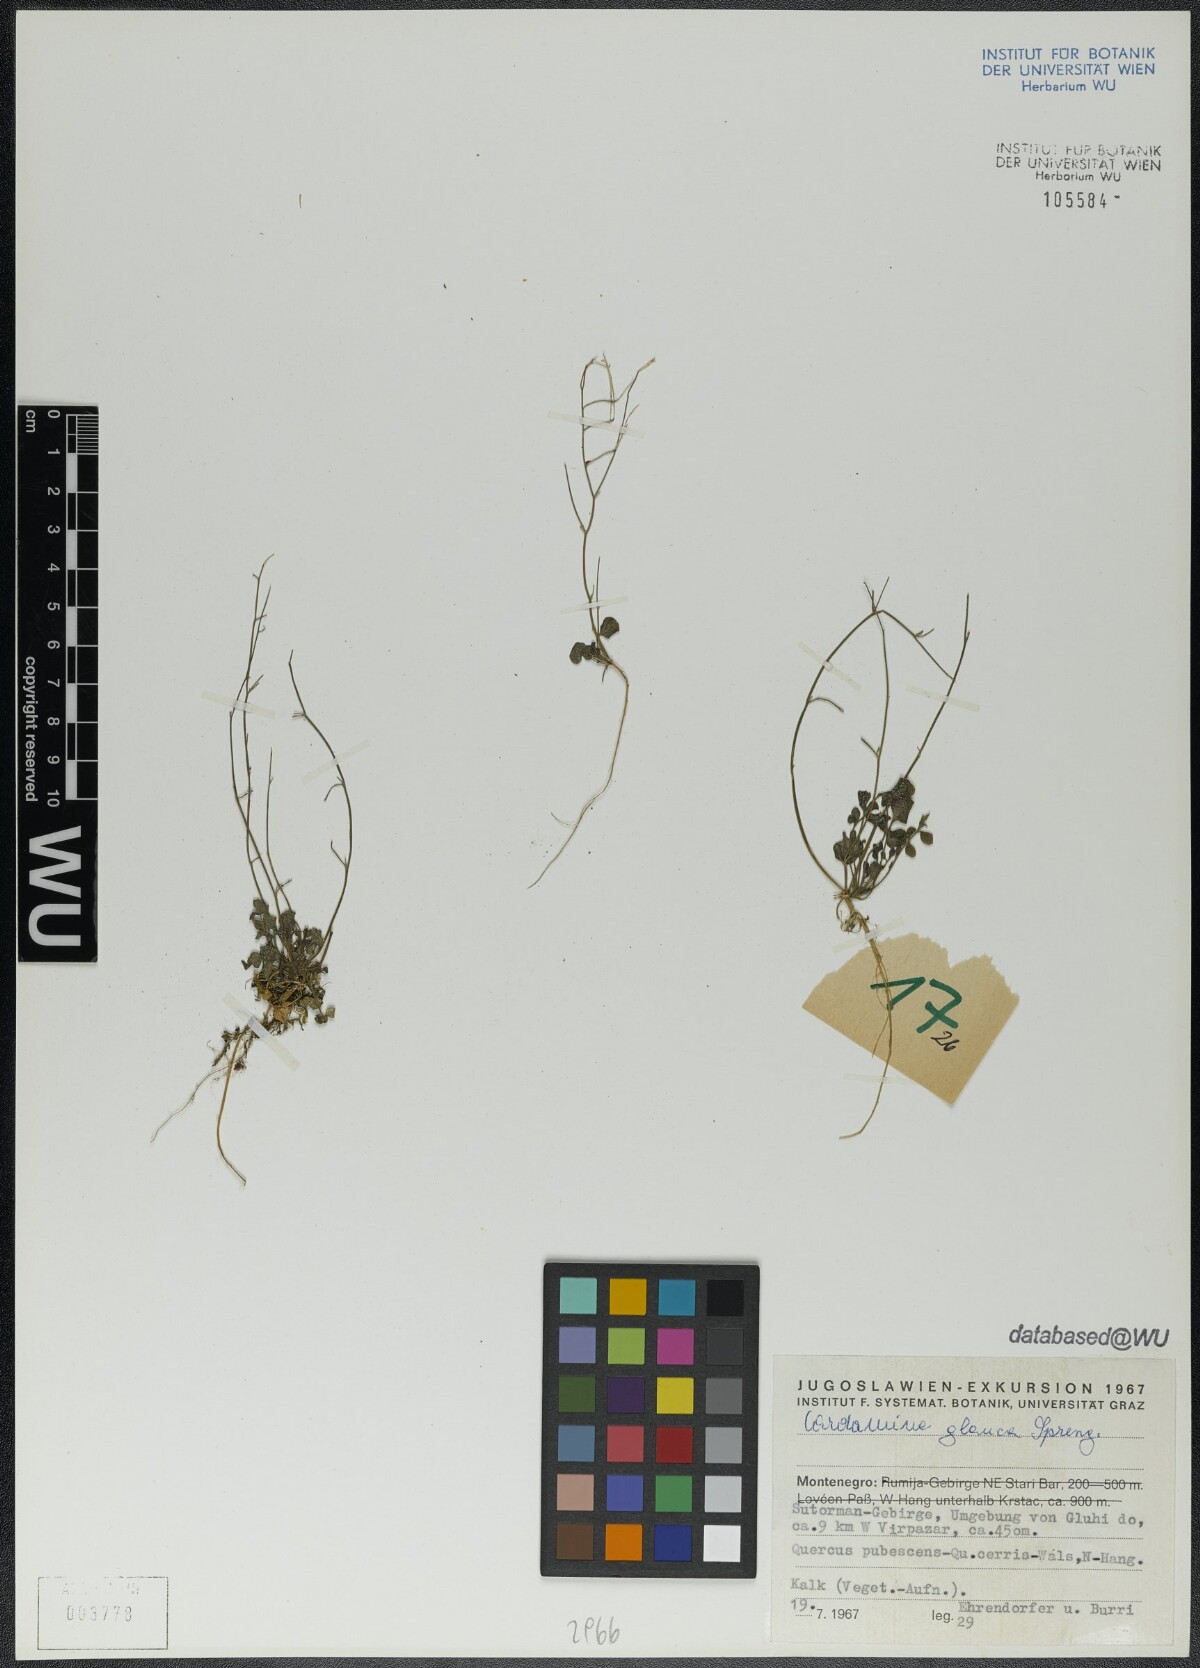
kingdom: Plantae
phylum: Tracheophyta
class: Magnoliopsida
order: Brassicales
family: Brassicaceae
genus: Cardamine
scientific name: Cardamine glauca
